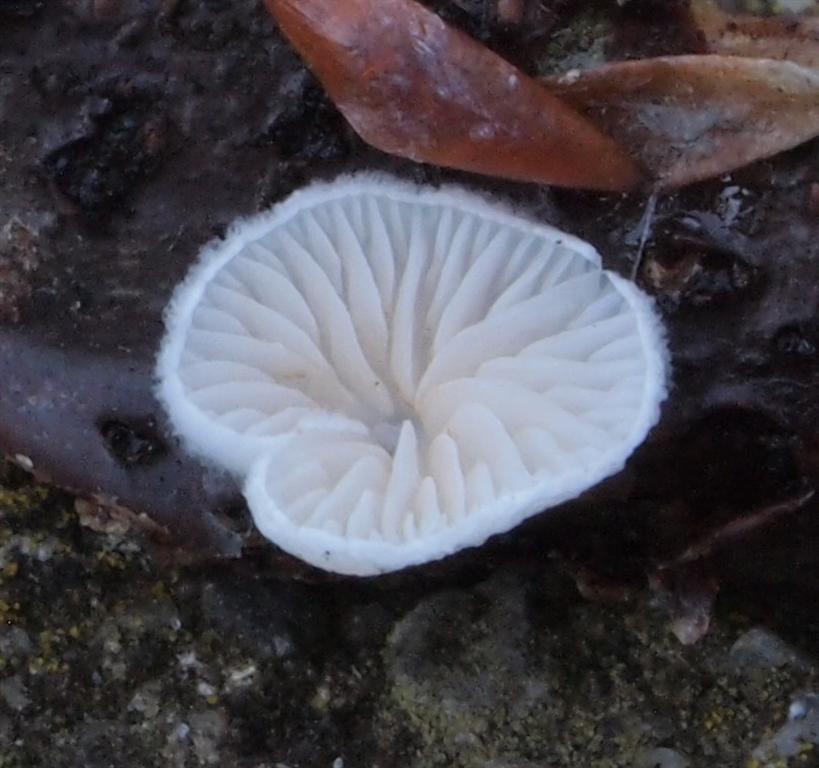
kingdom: Fungi
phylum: Basidiomycota
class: Agaricomycetes
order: Agaricales
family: Crepidotaceae
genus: Crepidotus
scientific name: Crepidotus cesatii
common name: almindelig muslingesvamp
